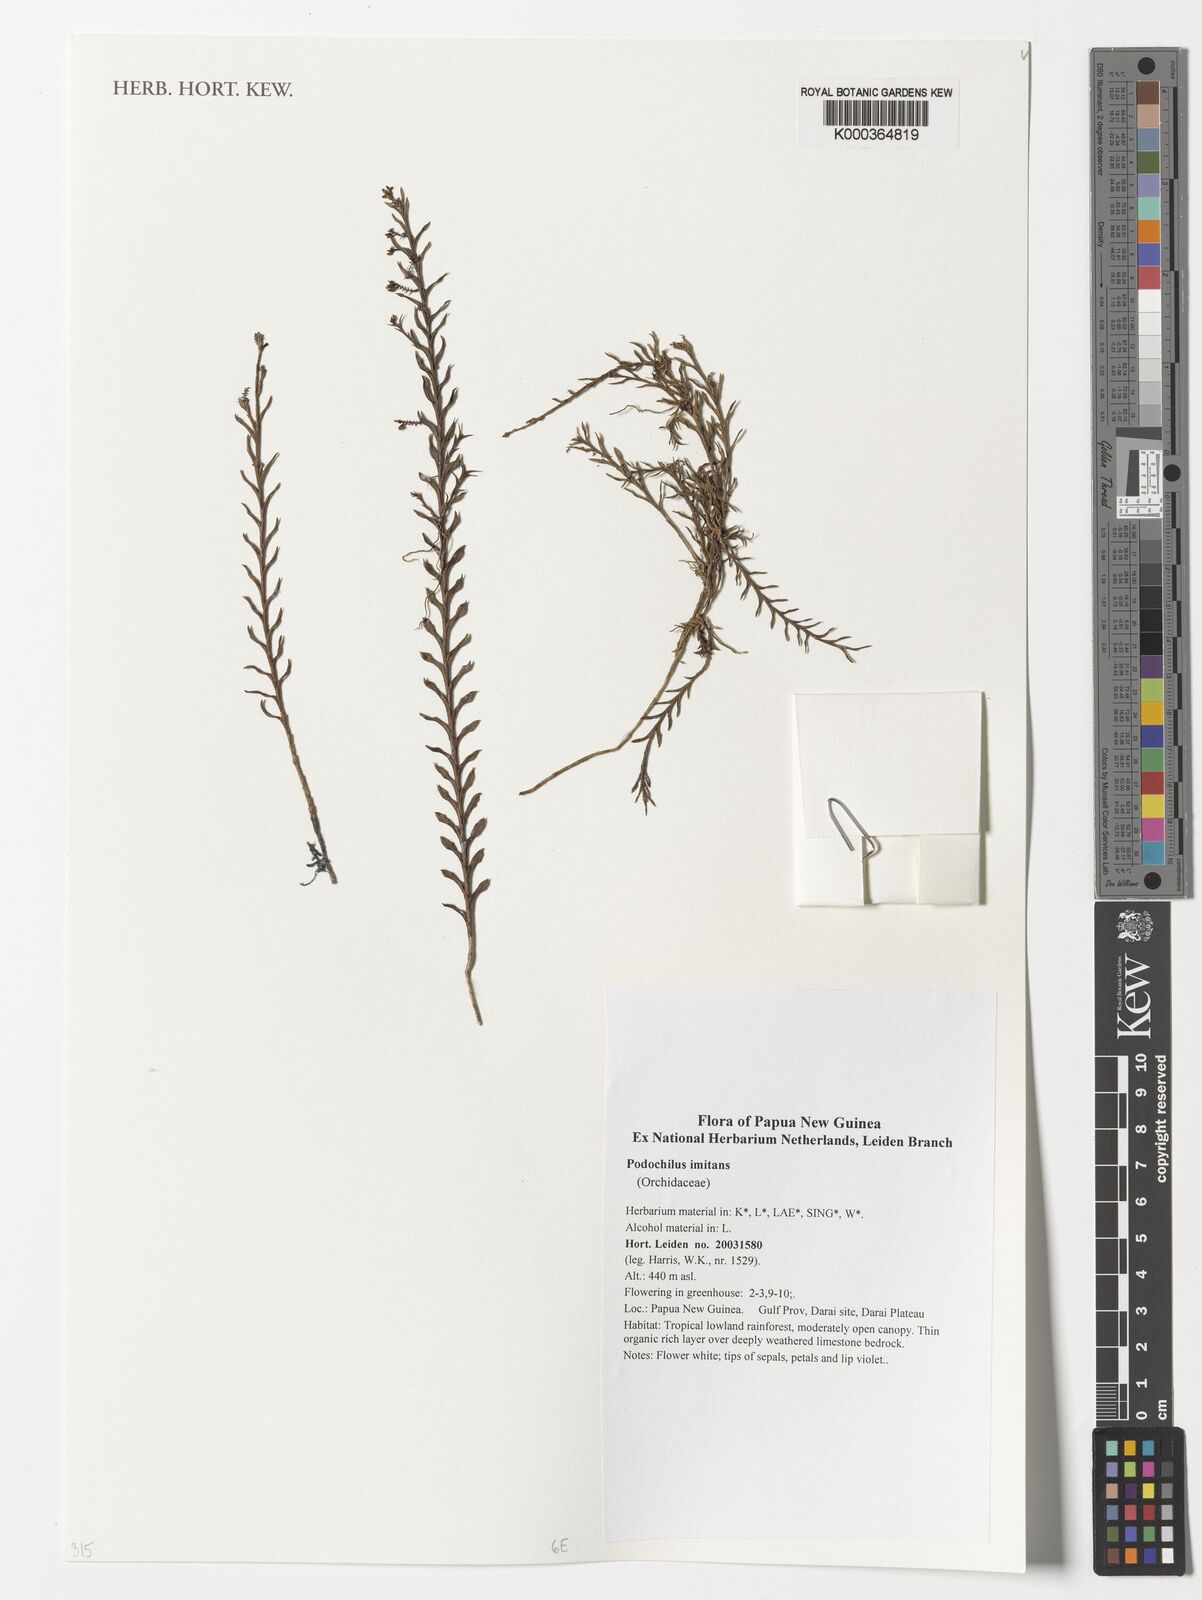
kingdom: Plantae
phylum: Tracheophyta
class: Liliopsida
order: Asparagales
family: Orchidaceae
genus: Podochilus
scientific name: Podochilus imitans
